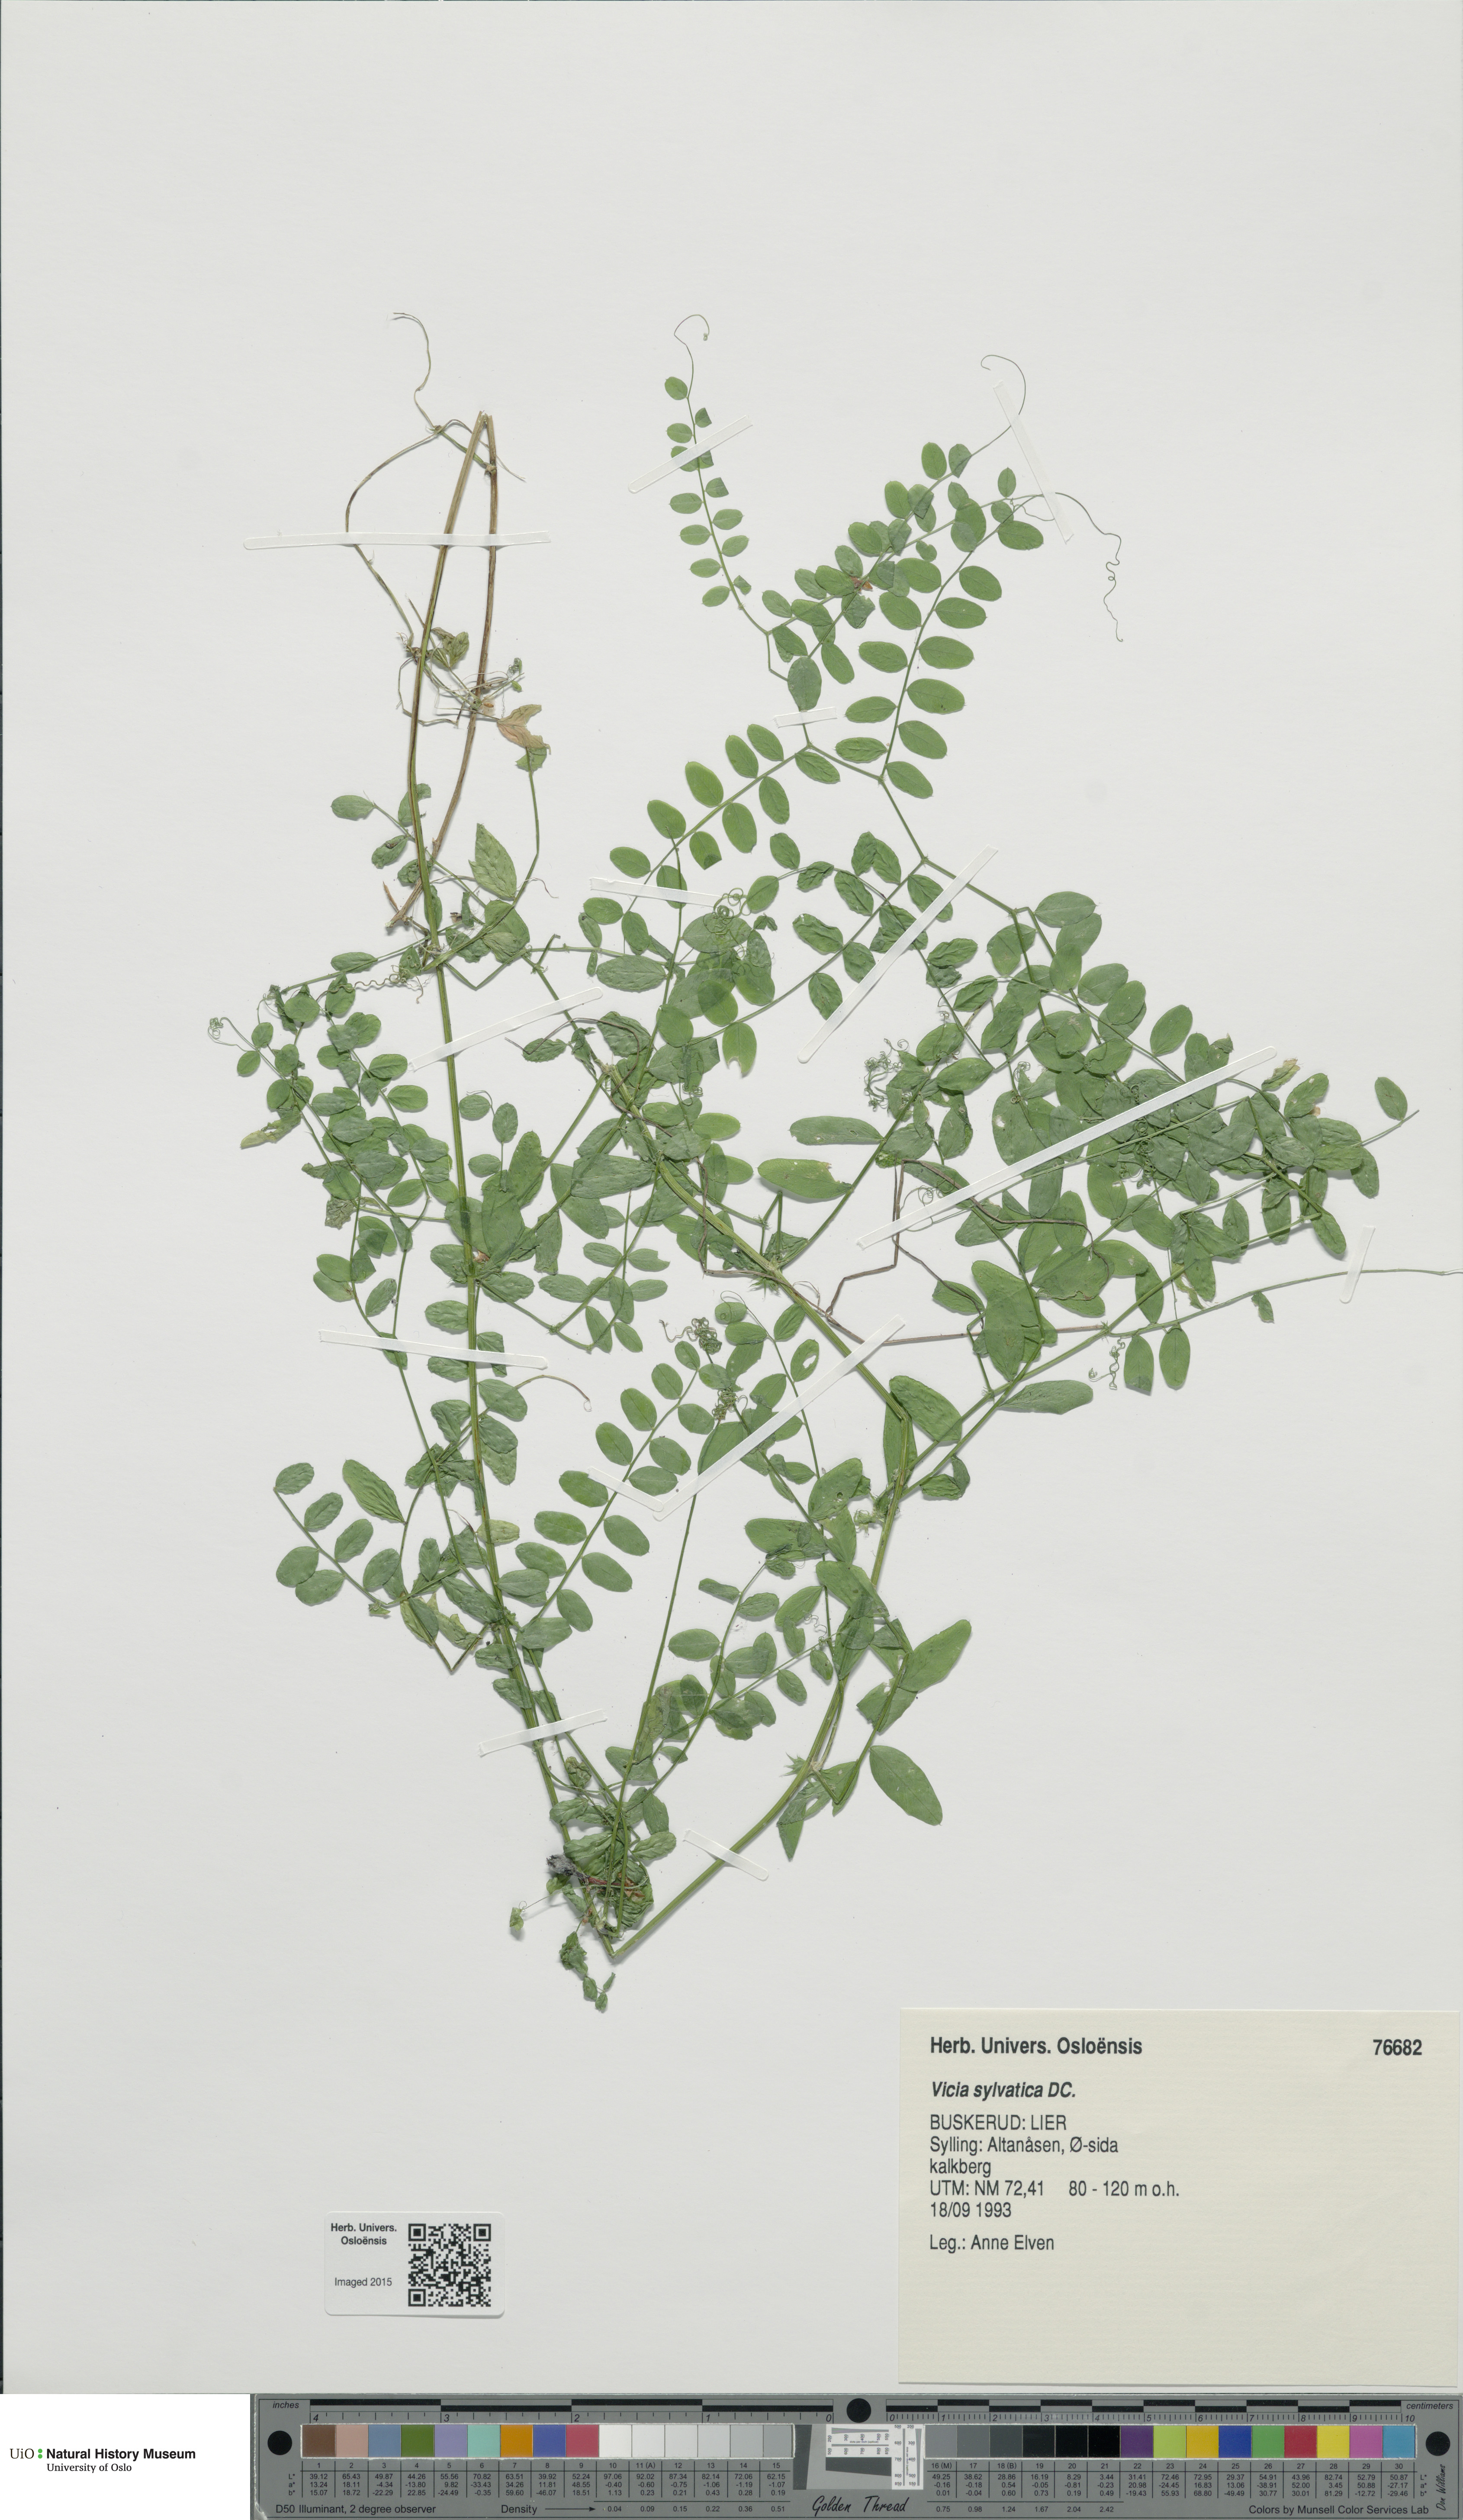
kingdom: Plantae
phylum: Tracheophyta
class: Magnoliopsida
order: Fabales
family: Fabaceae
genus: Vicia
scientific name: Vicia sylvatica
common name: Wood vetch
